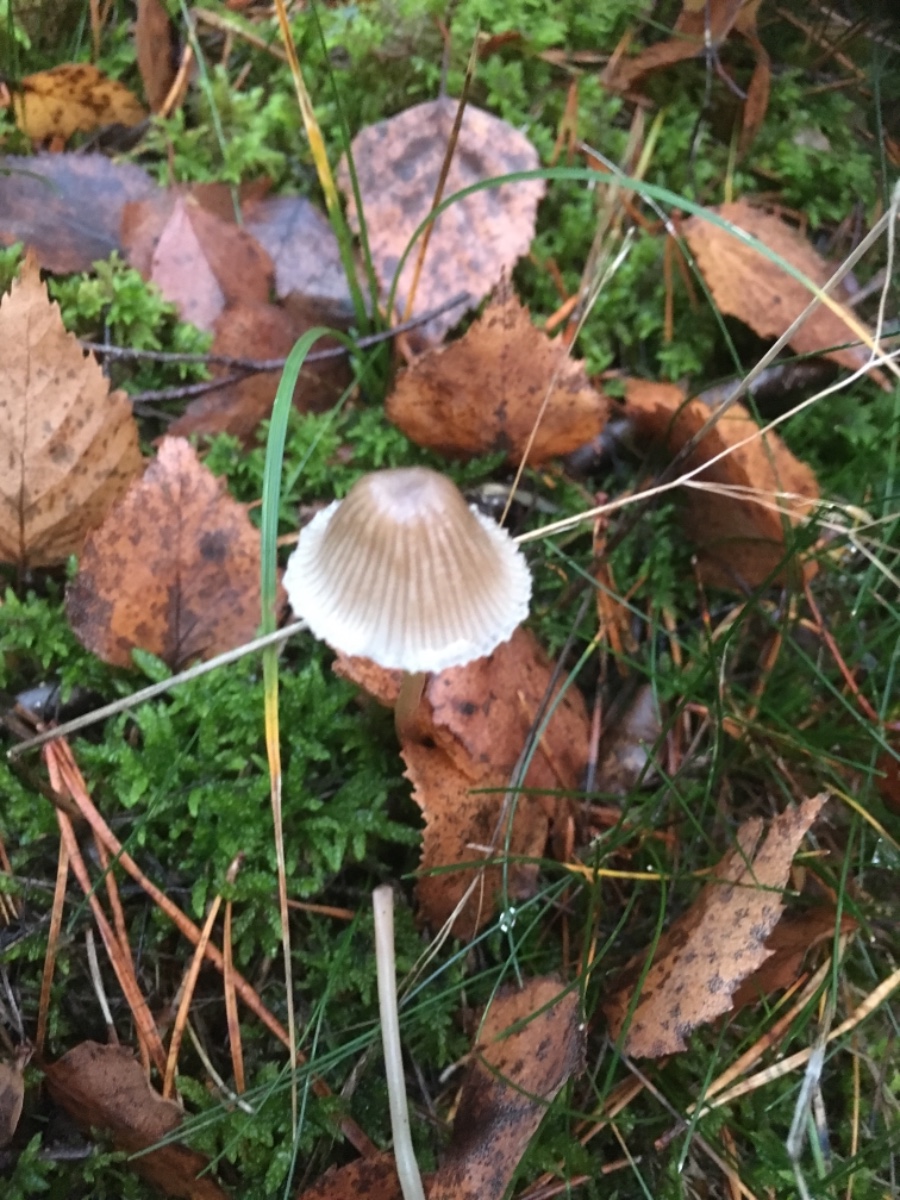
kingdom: Fungi
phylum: Basidiomycota
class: Agaricomycetes
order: Agaricales
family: Mycenaceae
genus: Mycena
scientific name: Mycena
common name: huesvamp
